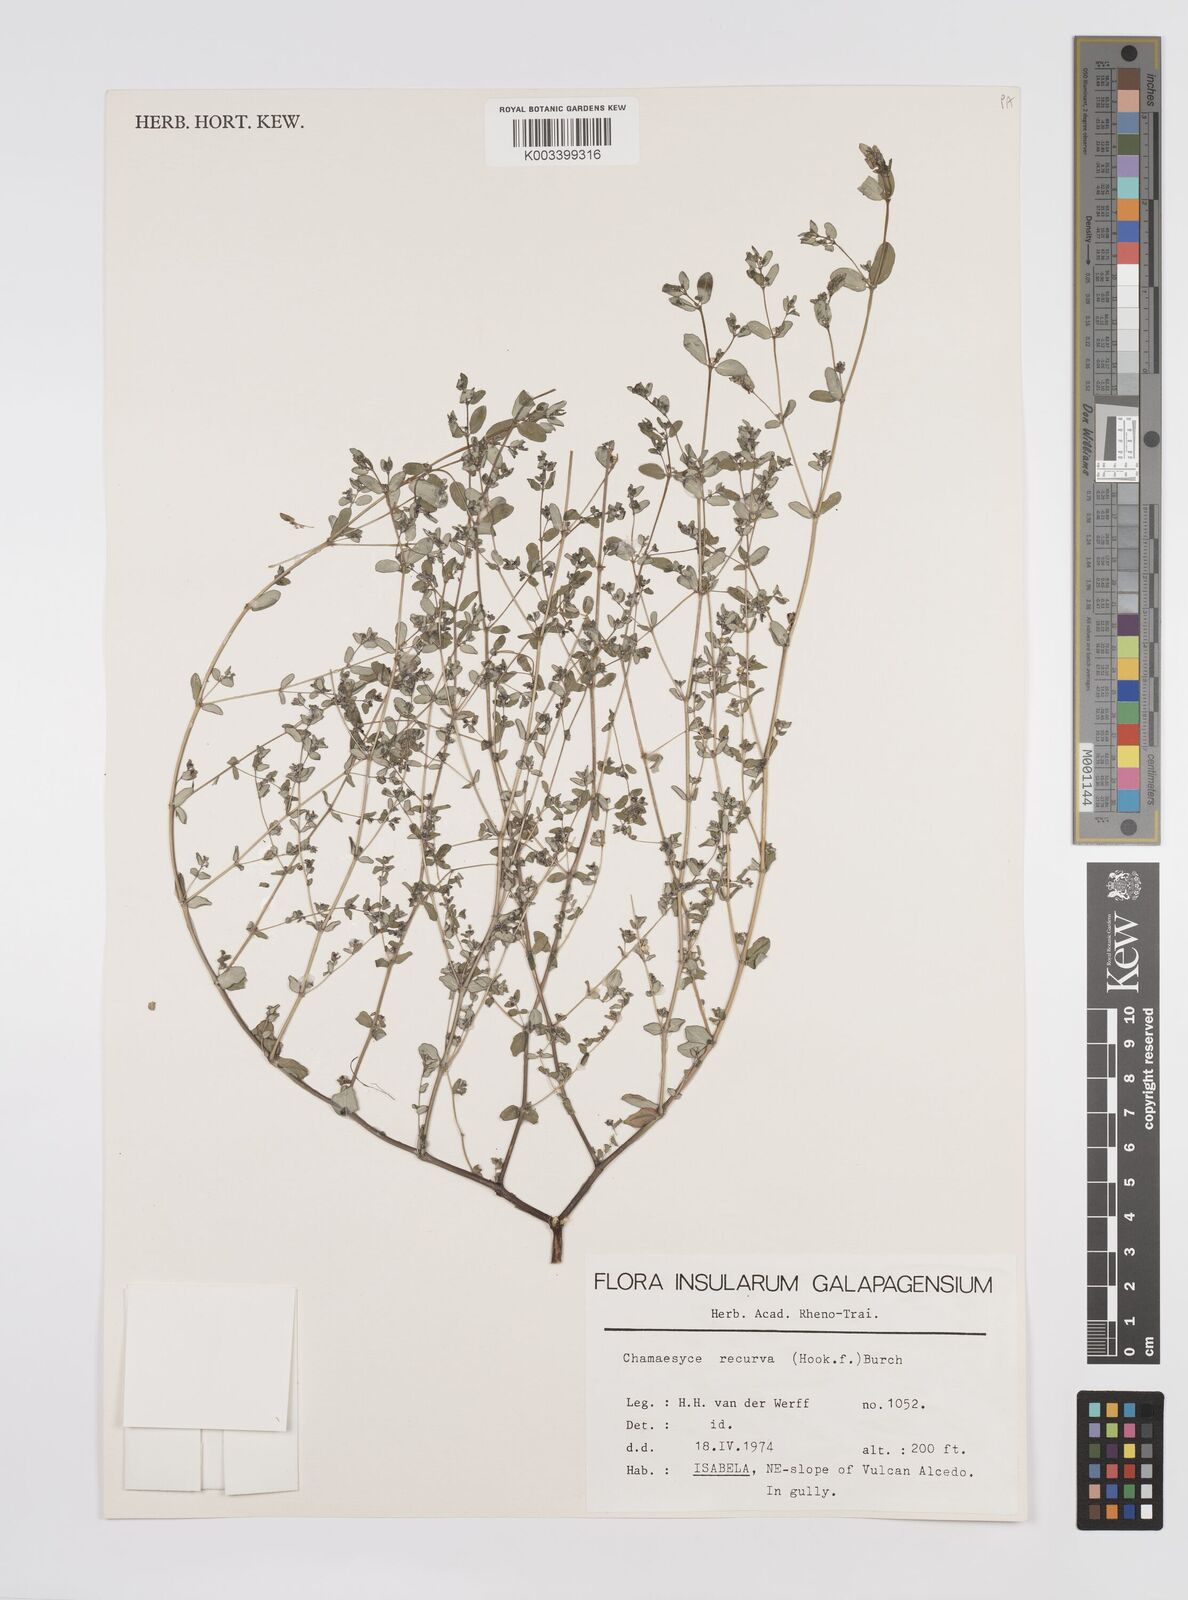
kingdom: Plantae
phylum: Tracheophyta
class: Magnoliopsida
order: Malpighiales
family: Euphorbiaceae
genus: Euphorbia
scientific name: Euphorbia recurva
